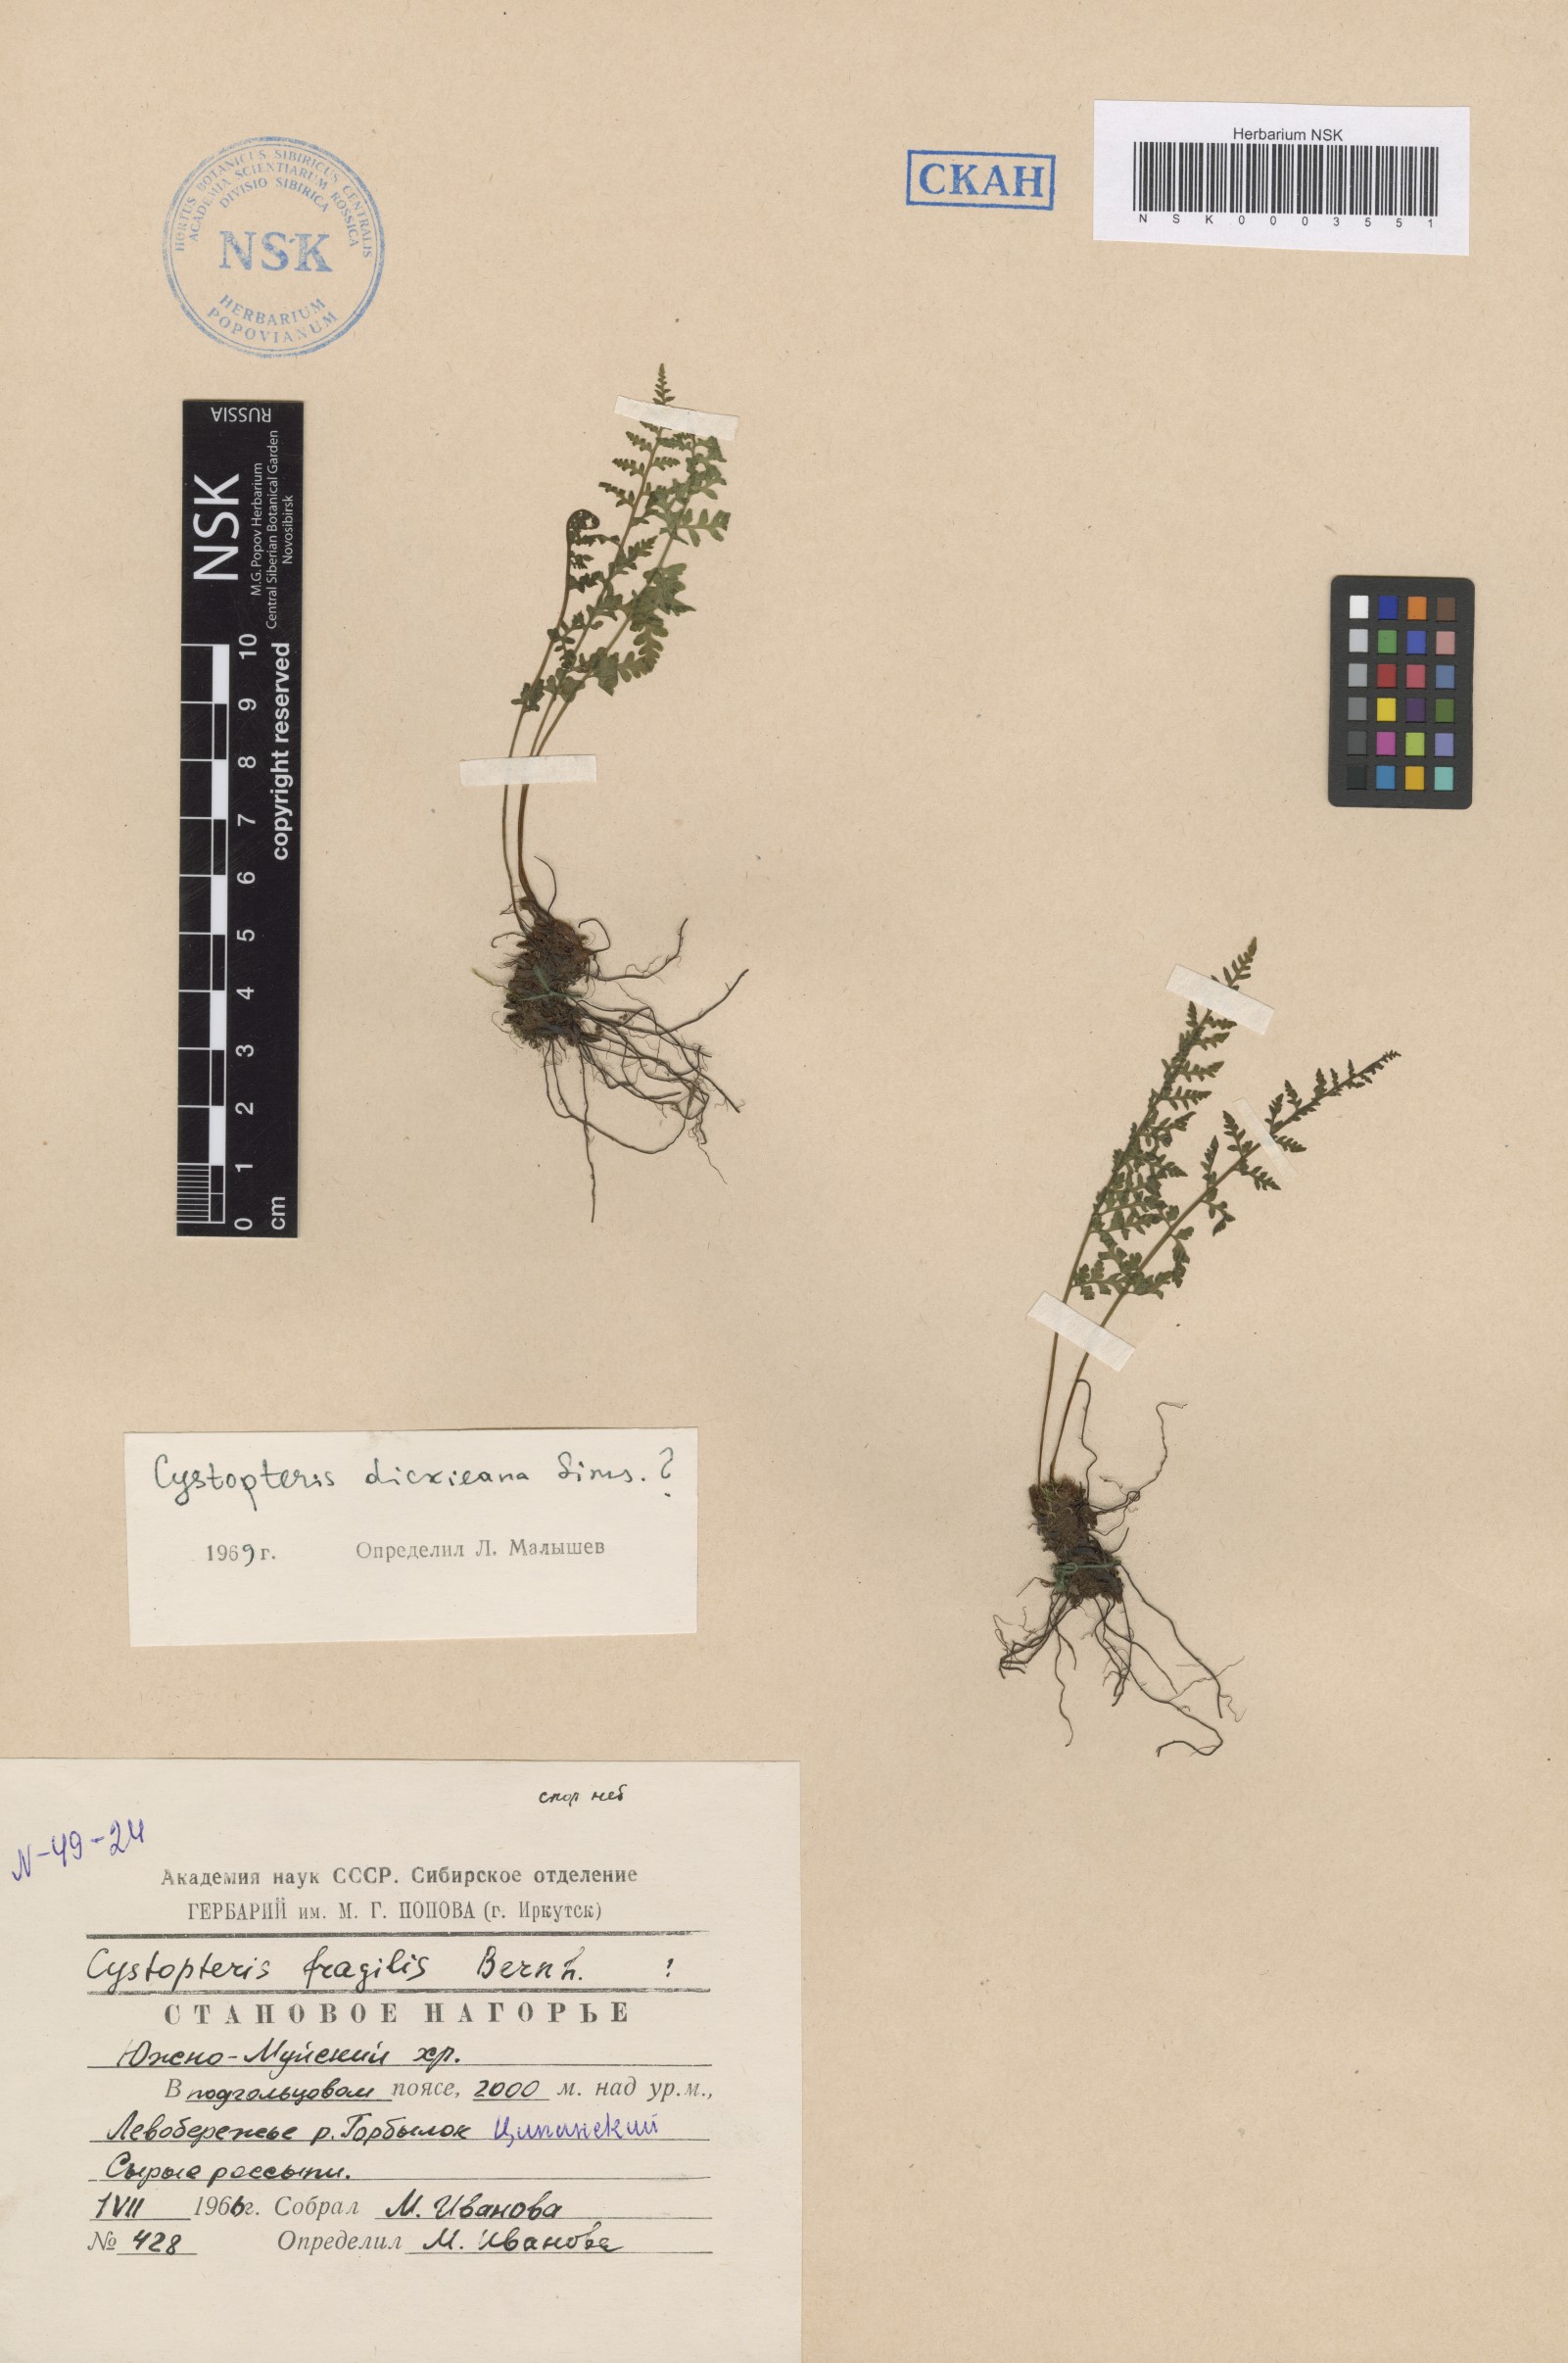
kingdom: Plantae
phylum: Tracheophyta
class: Polypodiopsida
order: Polypodiales
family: Cystopteridaceae
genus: Cystopteris
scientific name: Cystopteris dickieana
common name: Dickie's bladder-fern
